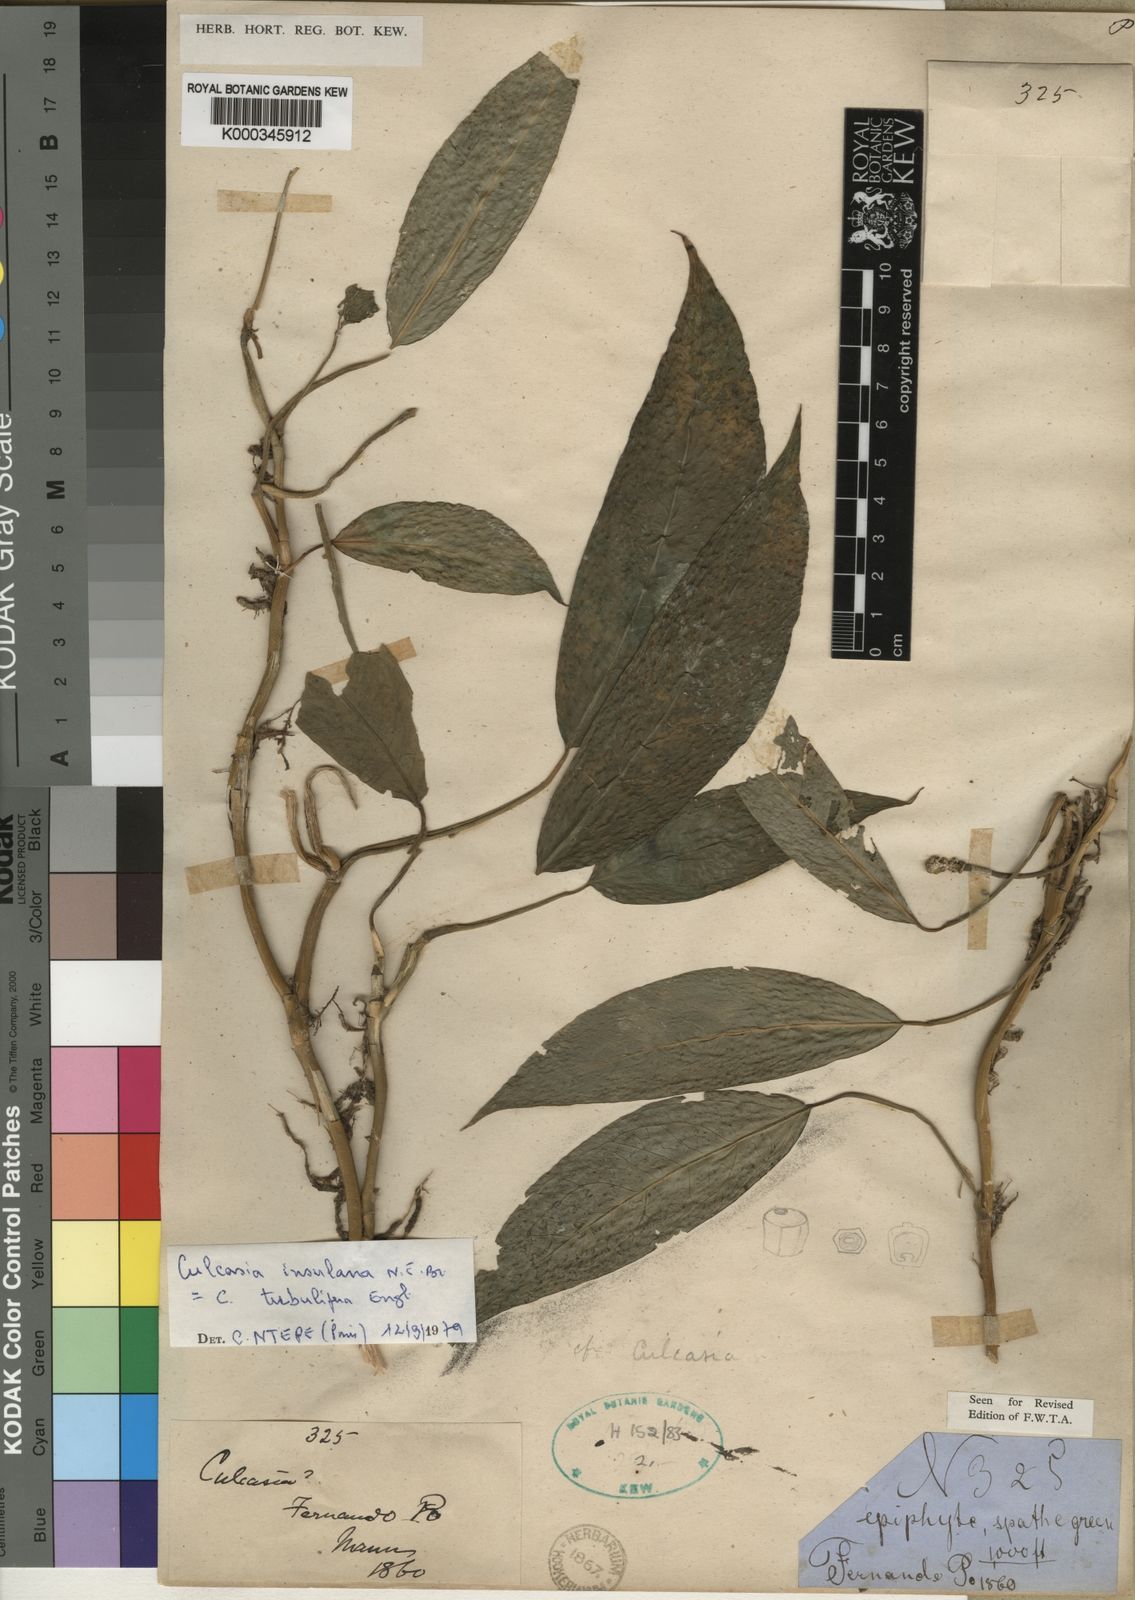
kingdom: Plantae
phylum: Tracheophyta
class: Liliopsida
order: Alismatales
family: Araceae
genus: Culcasia
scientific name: Culcasia insulana
